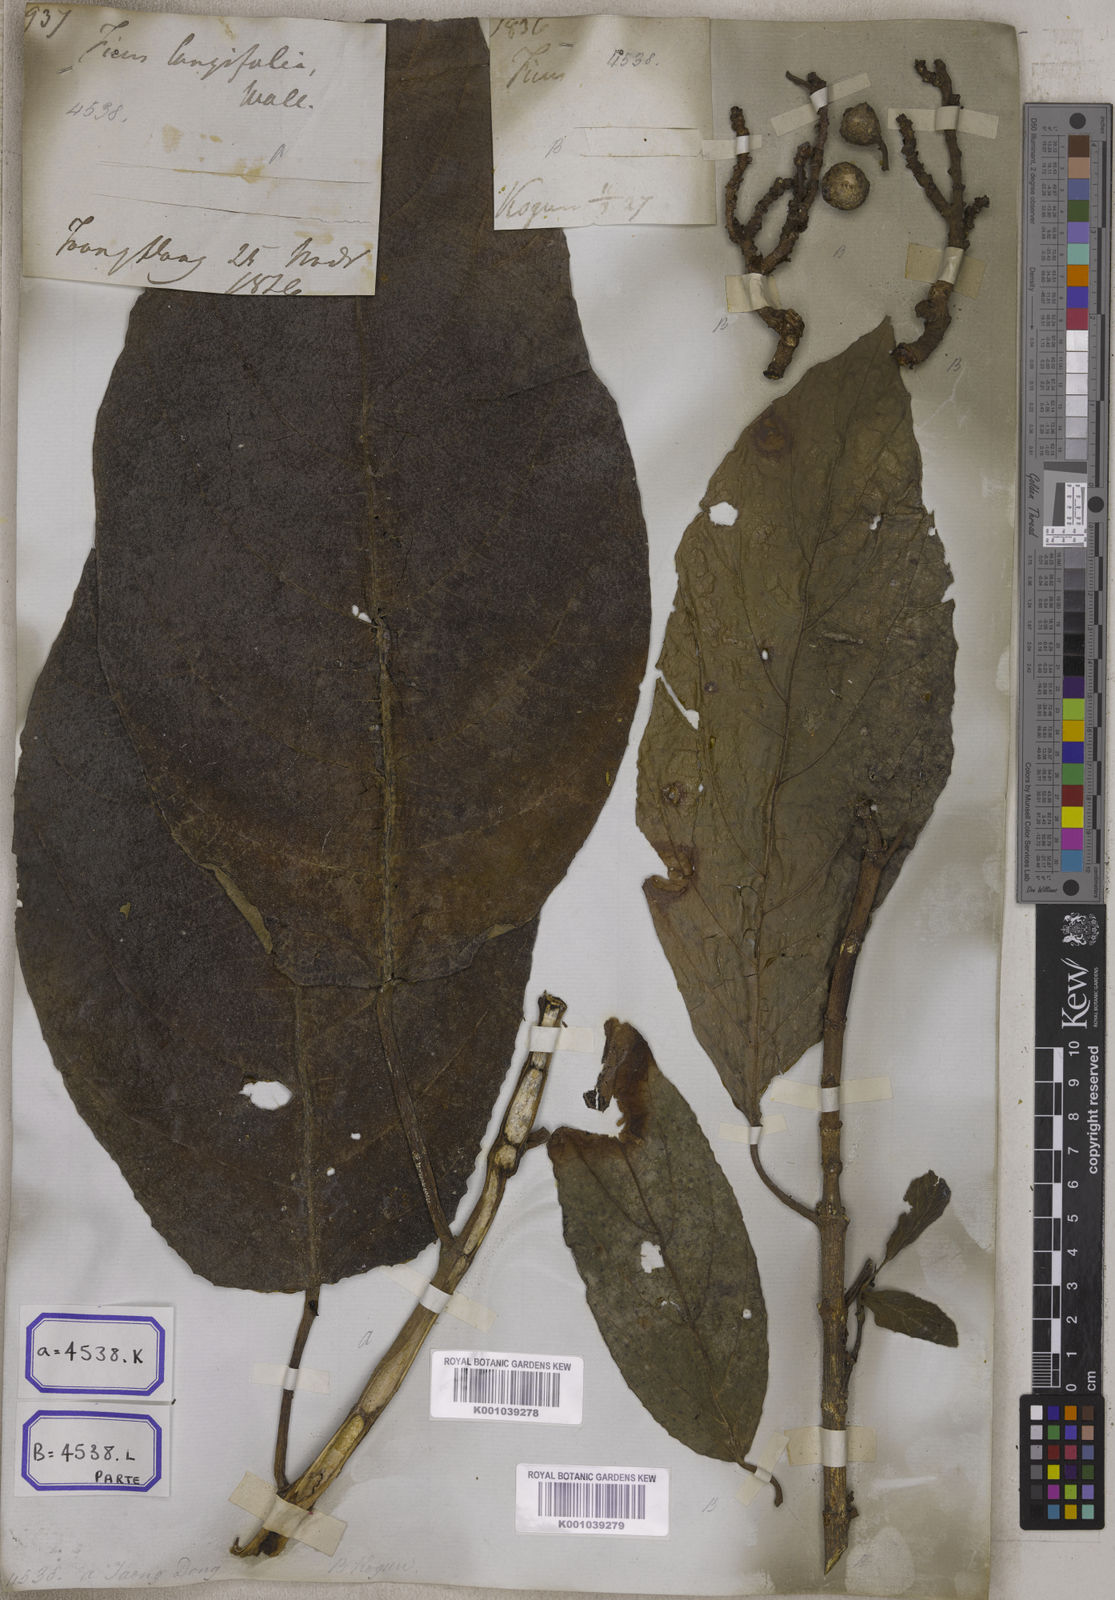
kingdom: Plantae
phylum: Tracheophyta
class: Magnoliopsida
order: Rosales
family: Moraceae
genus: Ficus
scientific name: Ficus hispida
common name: Hairy fig
